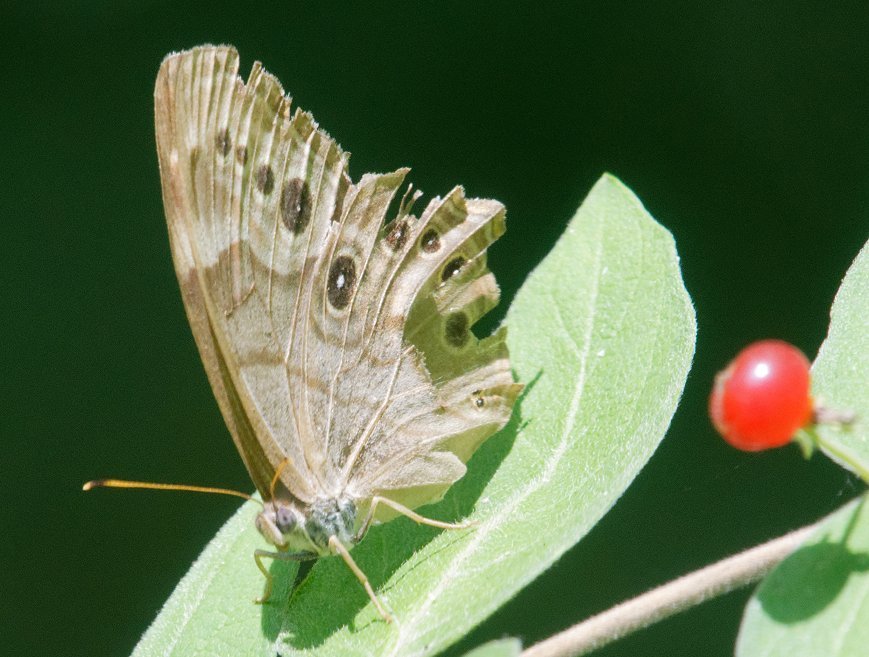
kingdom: Animalia
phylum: Arthropoda
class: Insecta
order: Lepidoptera
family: Nymphalidae
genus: Lethe
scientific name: Lethe anthedon
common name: Northern Pearly-Eye
